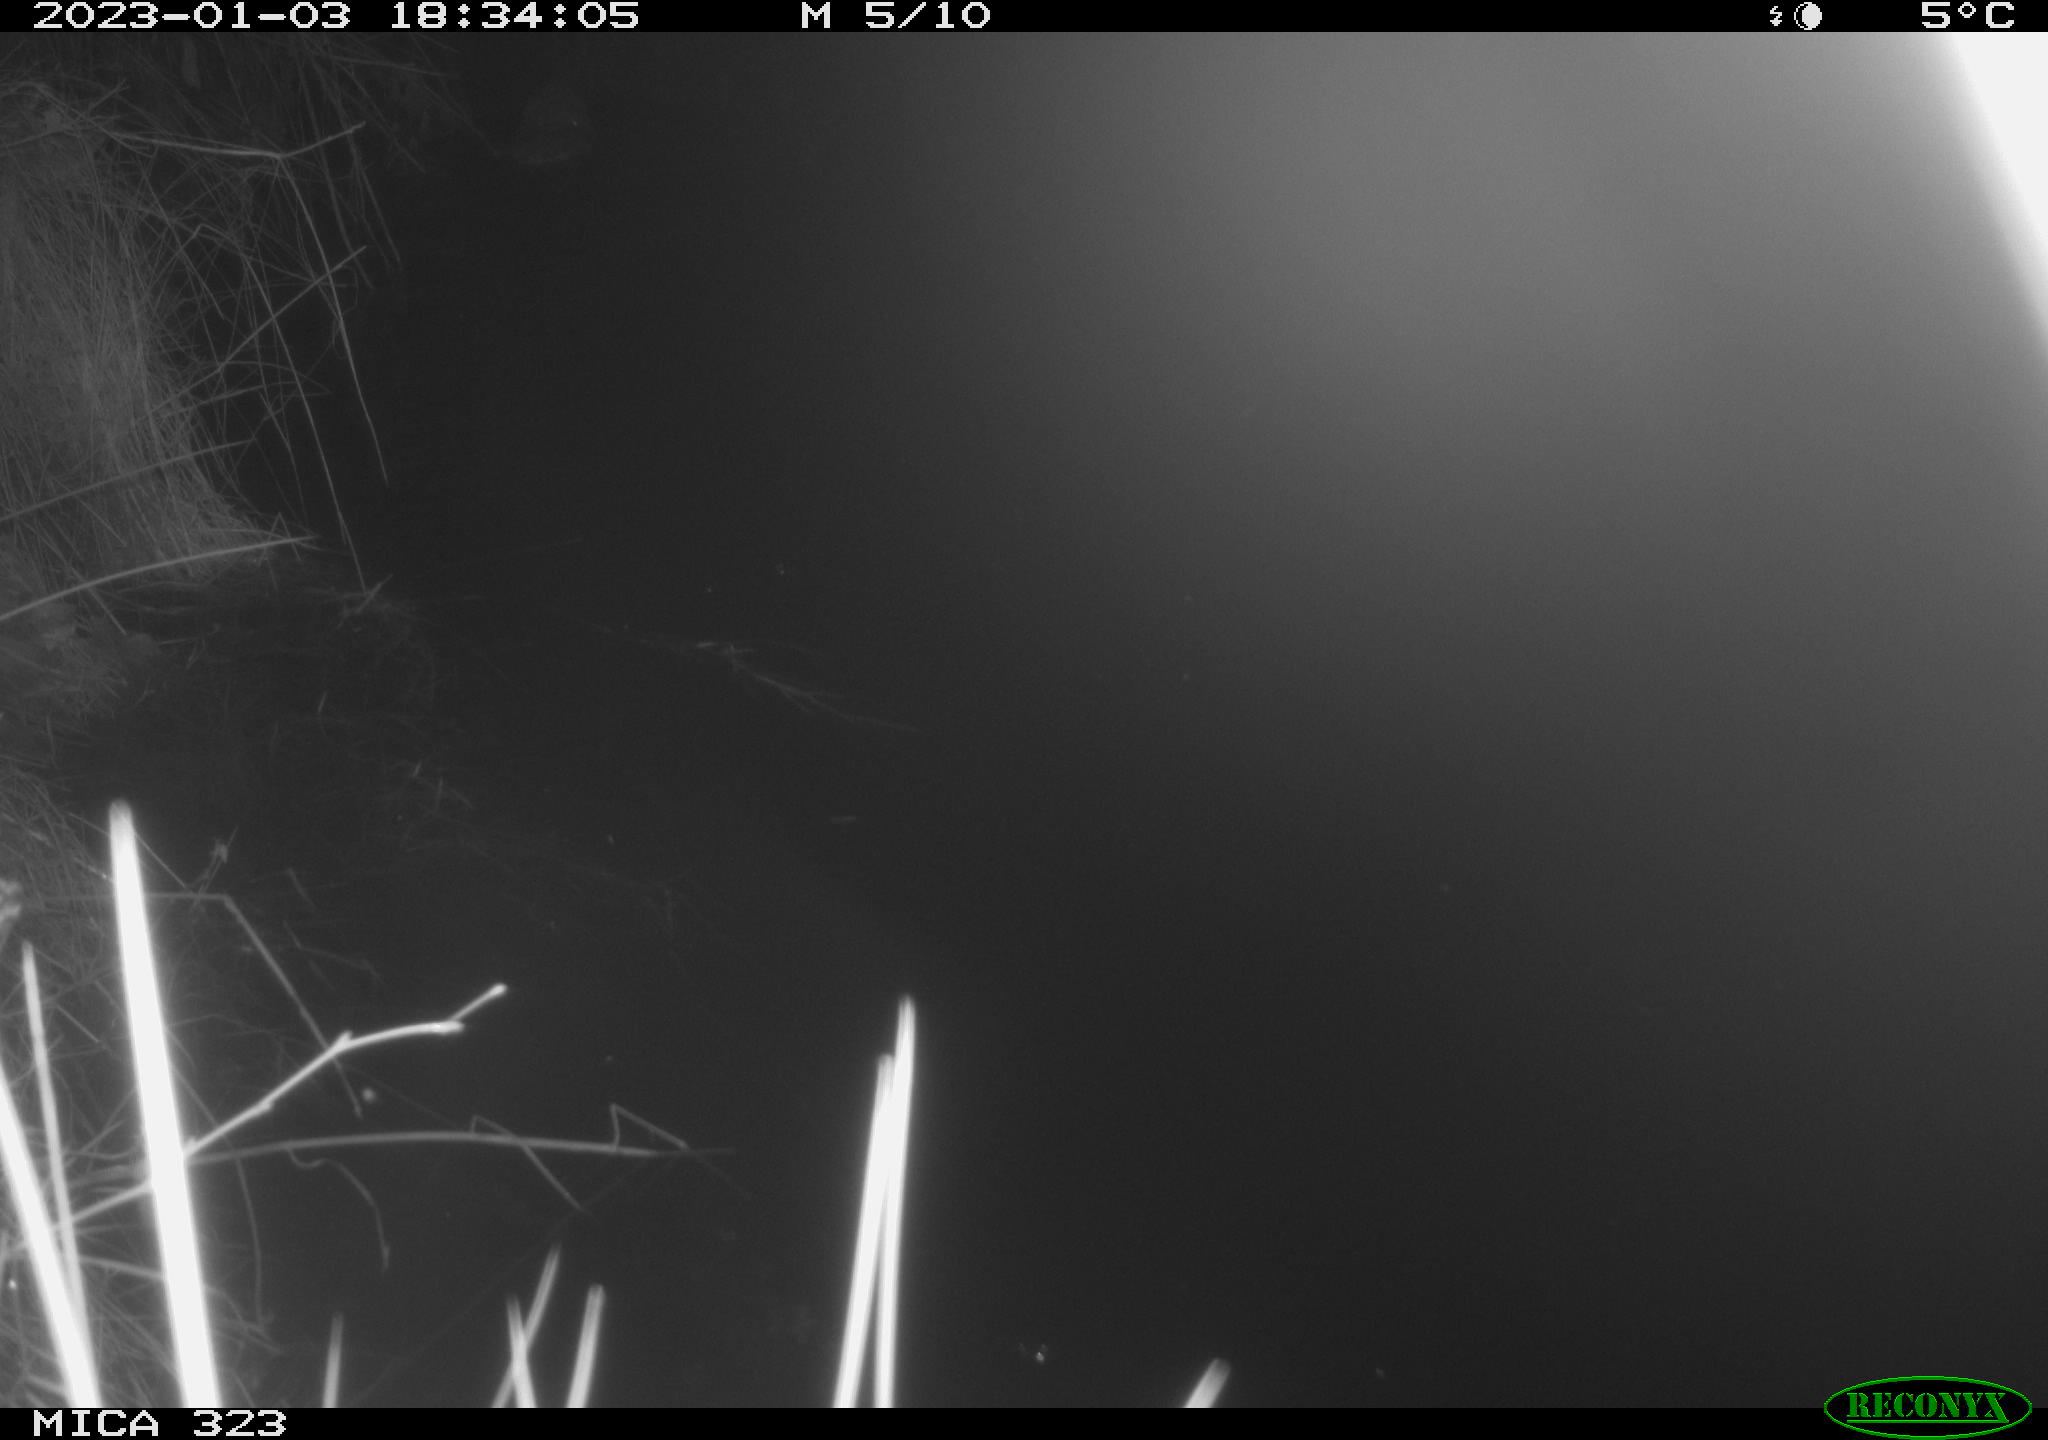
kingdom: Animalia
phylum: Chordata
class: Mammalia
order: Rodentia
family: Cricetidae
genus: Ondatra
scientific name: Ondatra zibethicus
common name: Muskrat
